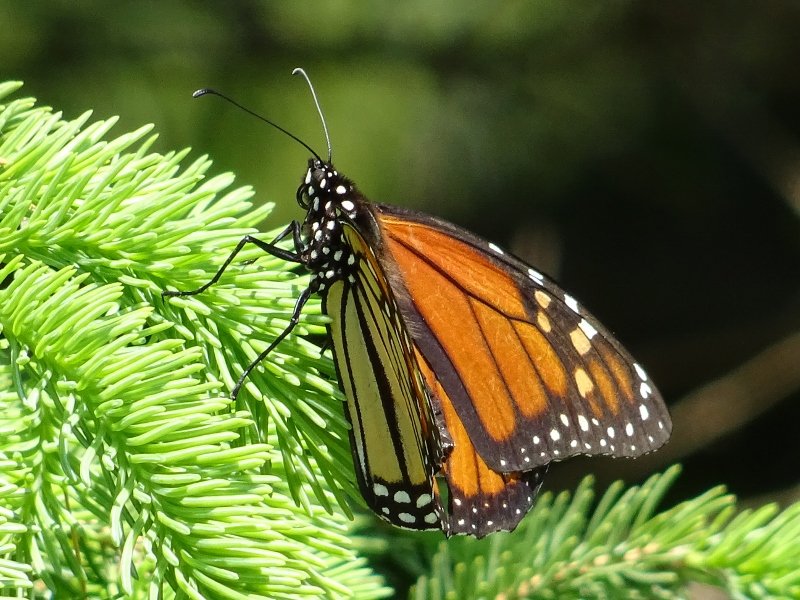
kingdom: Animalia
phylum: Arthropoda
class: Insecta
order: Lepidoptera
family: Nymphalidae
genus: Danaus
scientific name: Danaus plexippus
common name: Monarch
